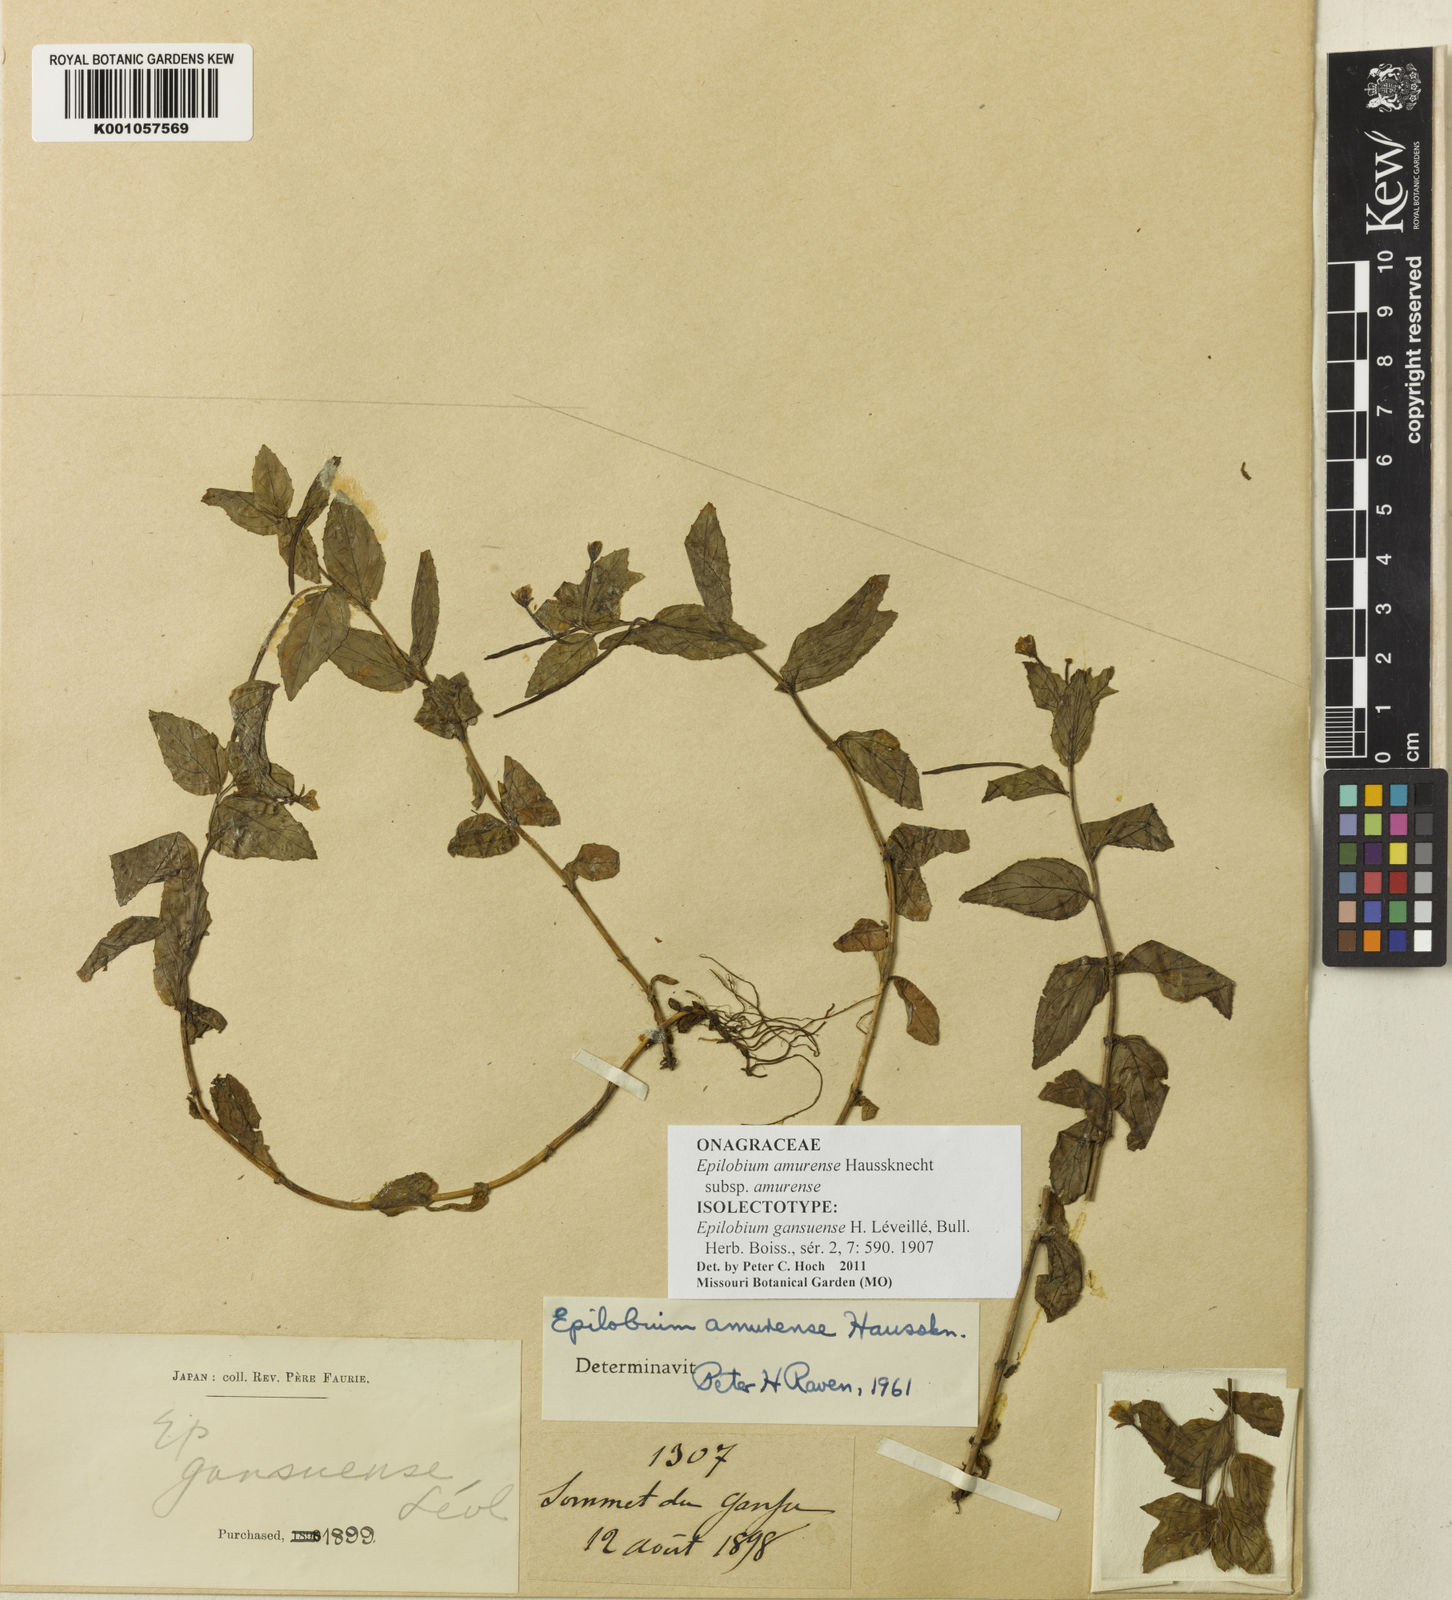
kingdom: Plantae
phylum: Tracheophyta
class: Magnoliopsida
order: Myrtales
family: Onagraceae
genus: Epilobium
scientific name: Epilobium amurense
